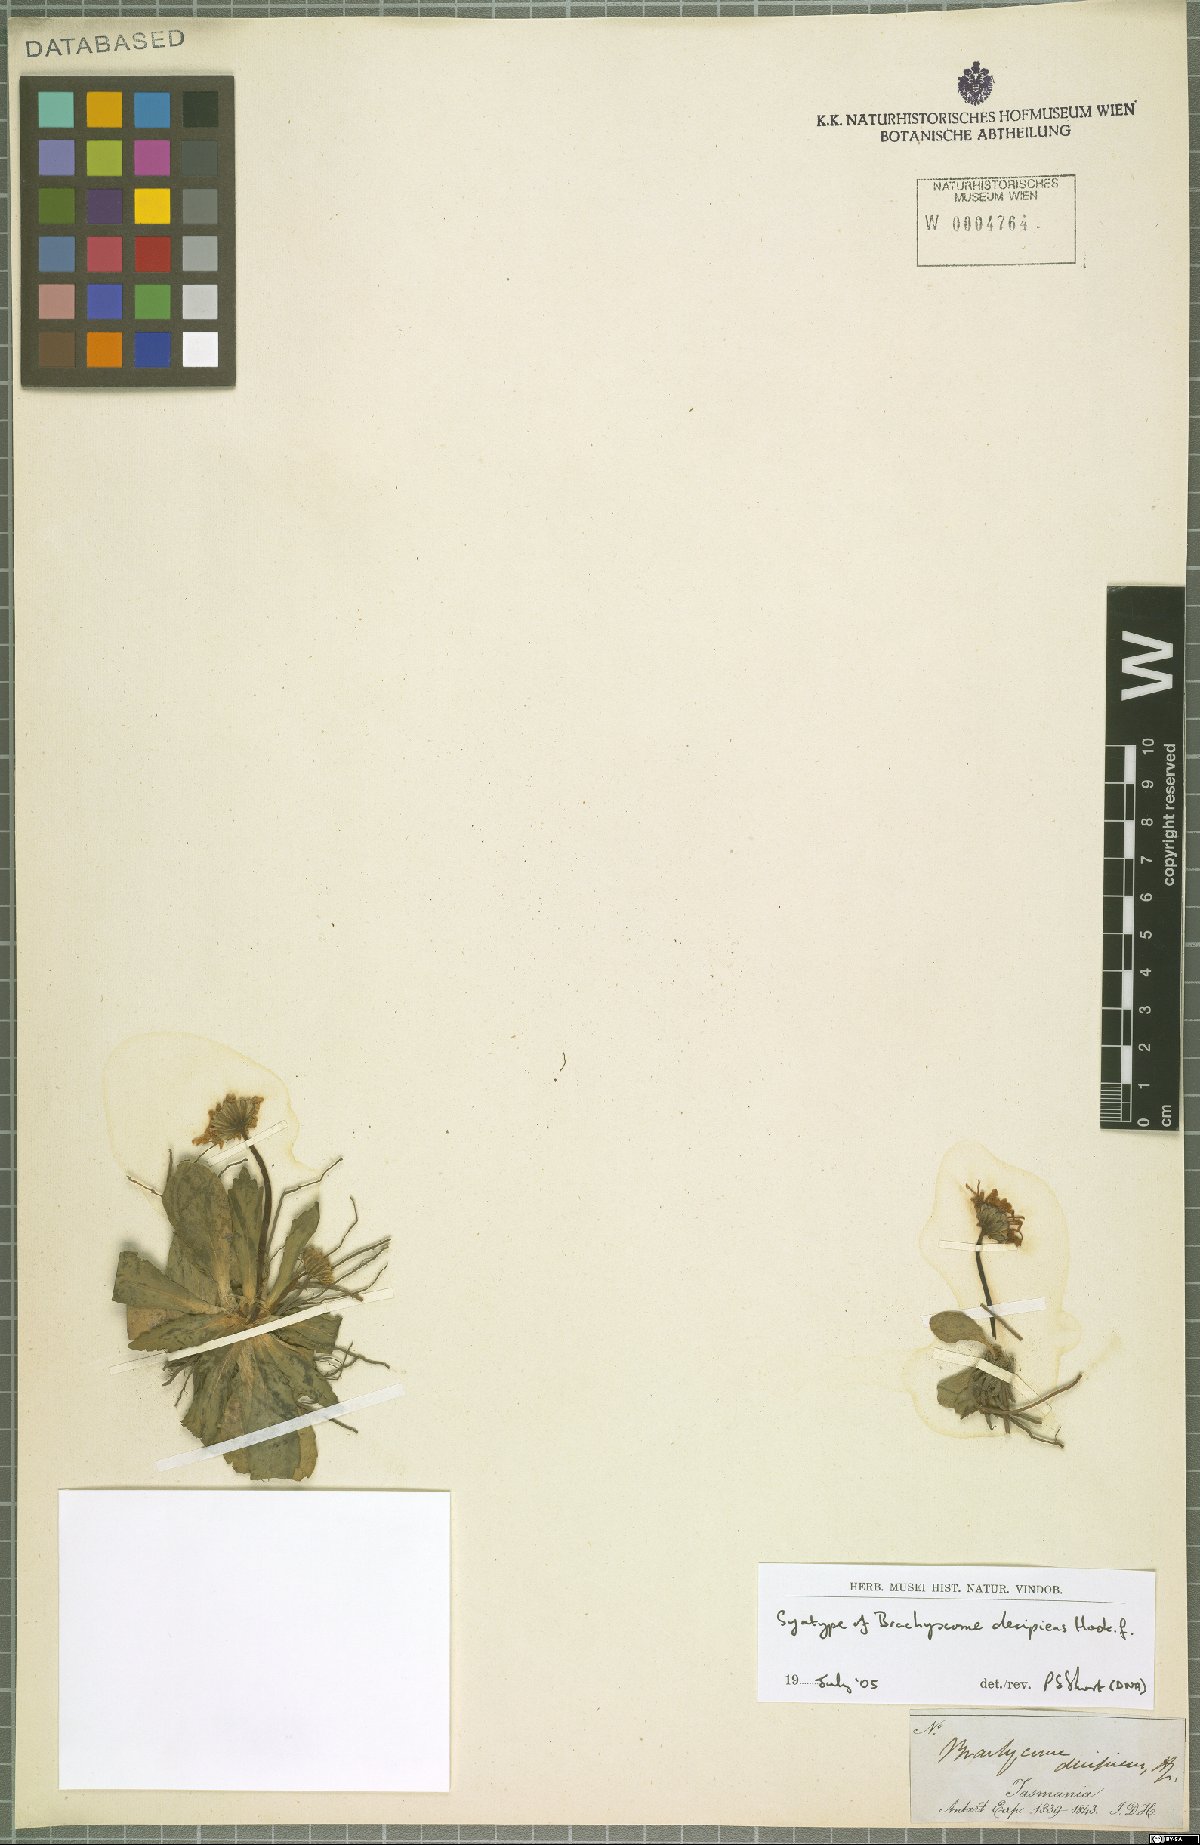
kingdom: Plantae
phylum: Tracheophyta
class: Magnoliopsida
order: Asterales
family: Asteraceae
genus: Brachyscome
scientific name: Brachyscome decipiens
